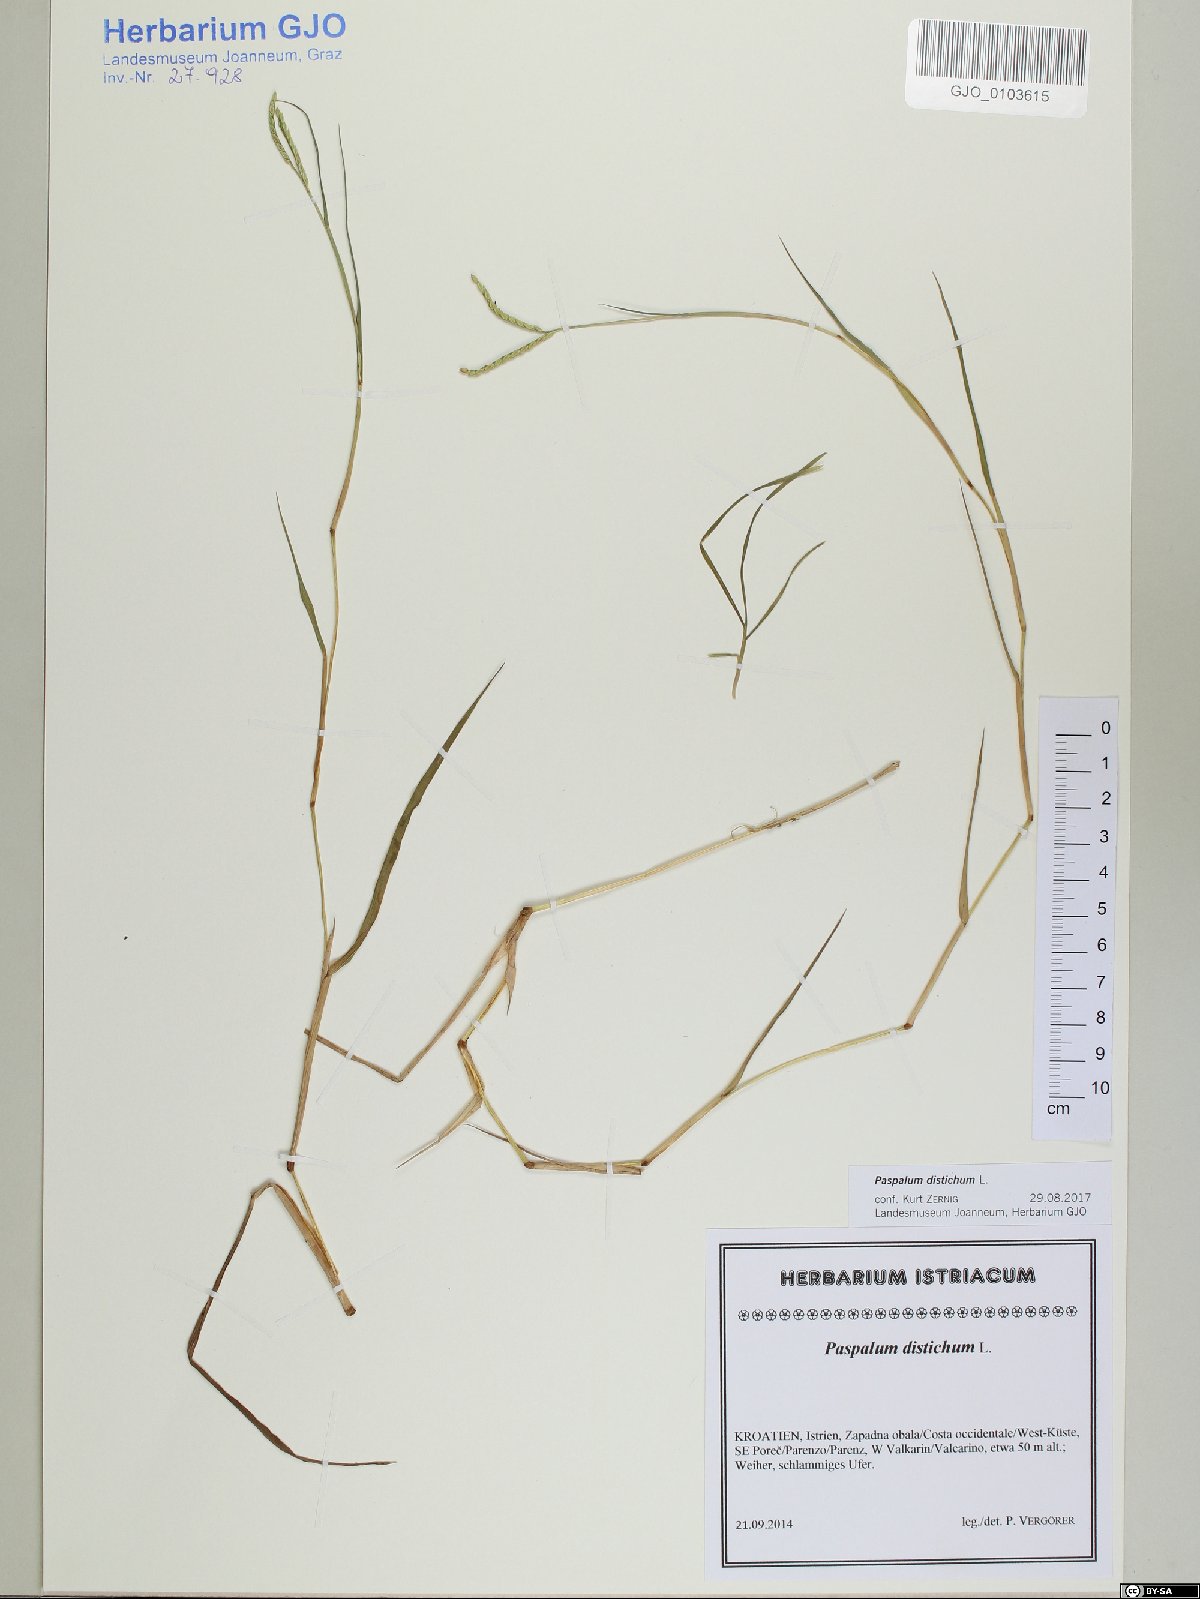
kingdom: Plantae
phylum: Tracheophyta
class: Liliopsida
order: Poales
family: Poaceae
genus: Paspalum
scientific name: Paspalum distichum
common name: Knotgrass
